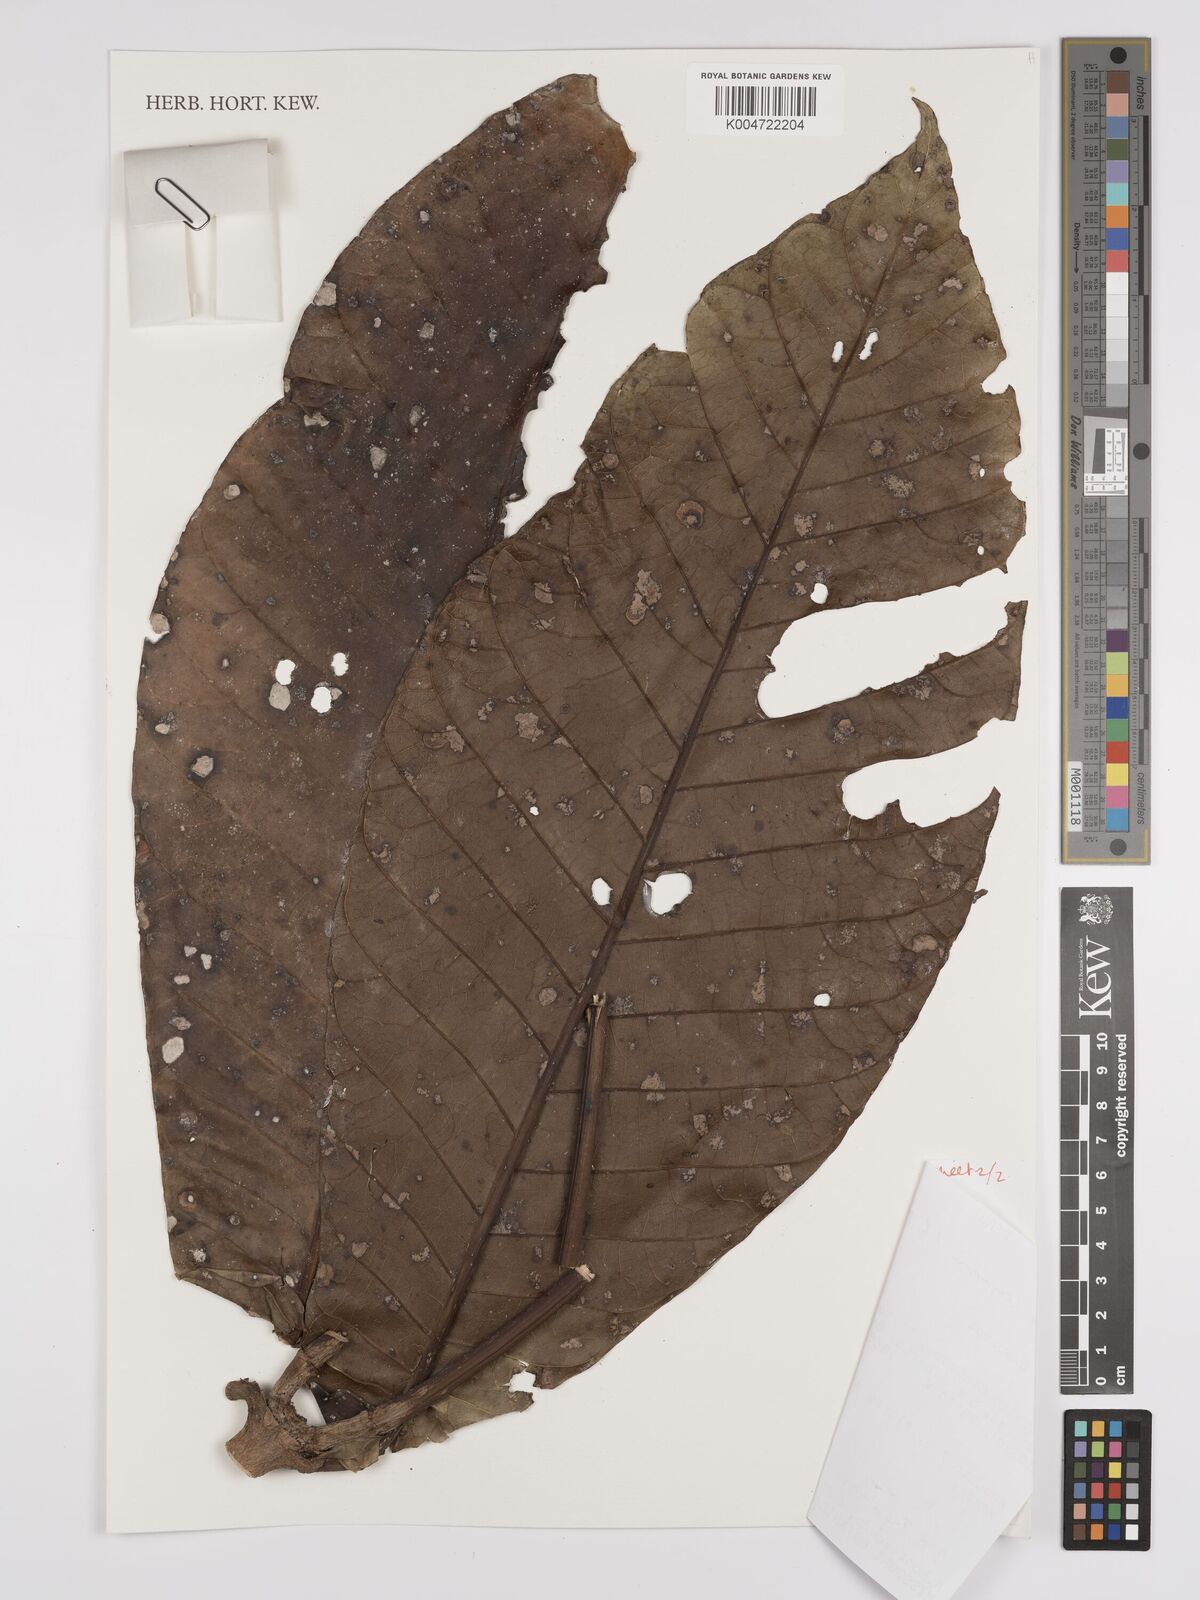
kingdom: Plantae
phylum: Tracheophyta
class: Magnoliopsida
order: Gentianales
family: Rubiaceae
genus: Condaminea
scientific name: Condaminea corymbosa
